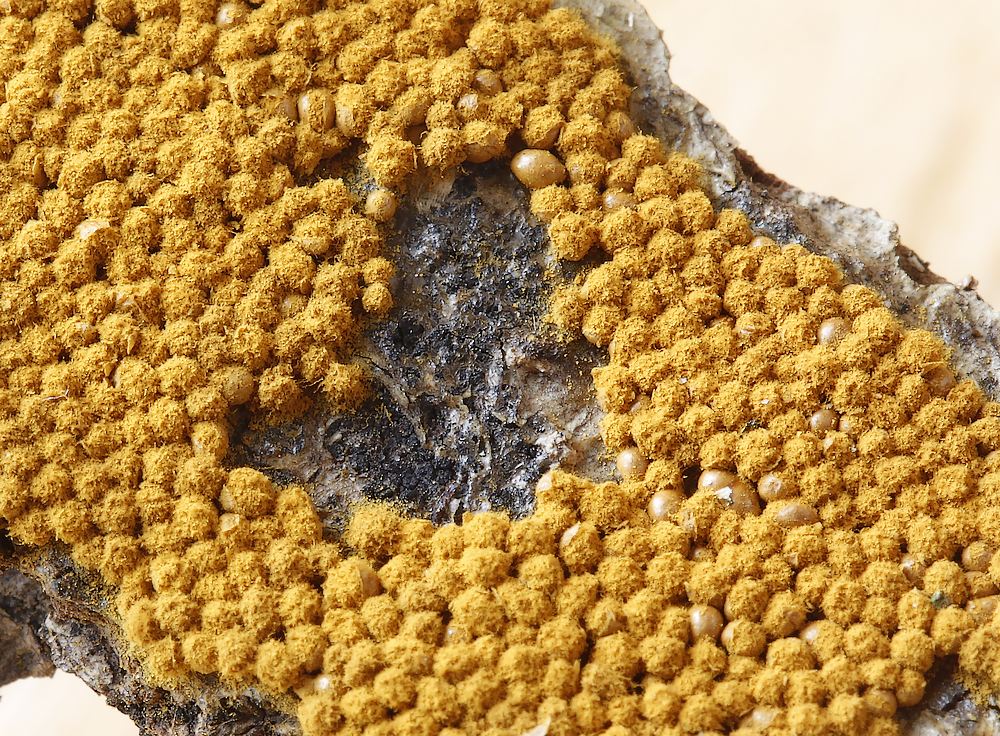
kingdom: Protozoa
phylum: Mycetozoa
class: Myxomycetes
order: Trichiales
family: Trichiaceae
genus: Oligonema
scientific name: Oligonema persimile
